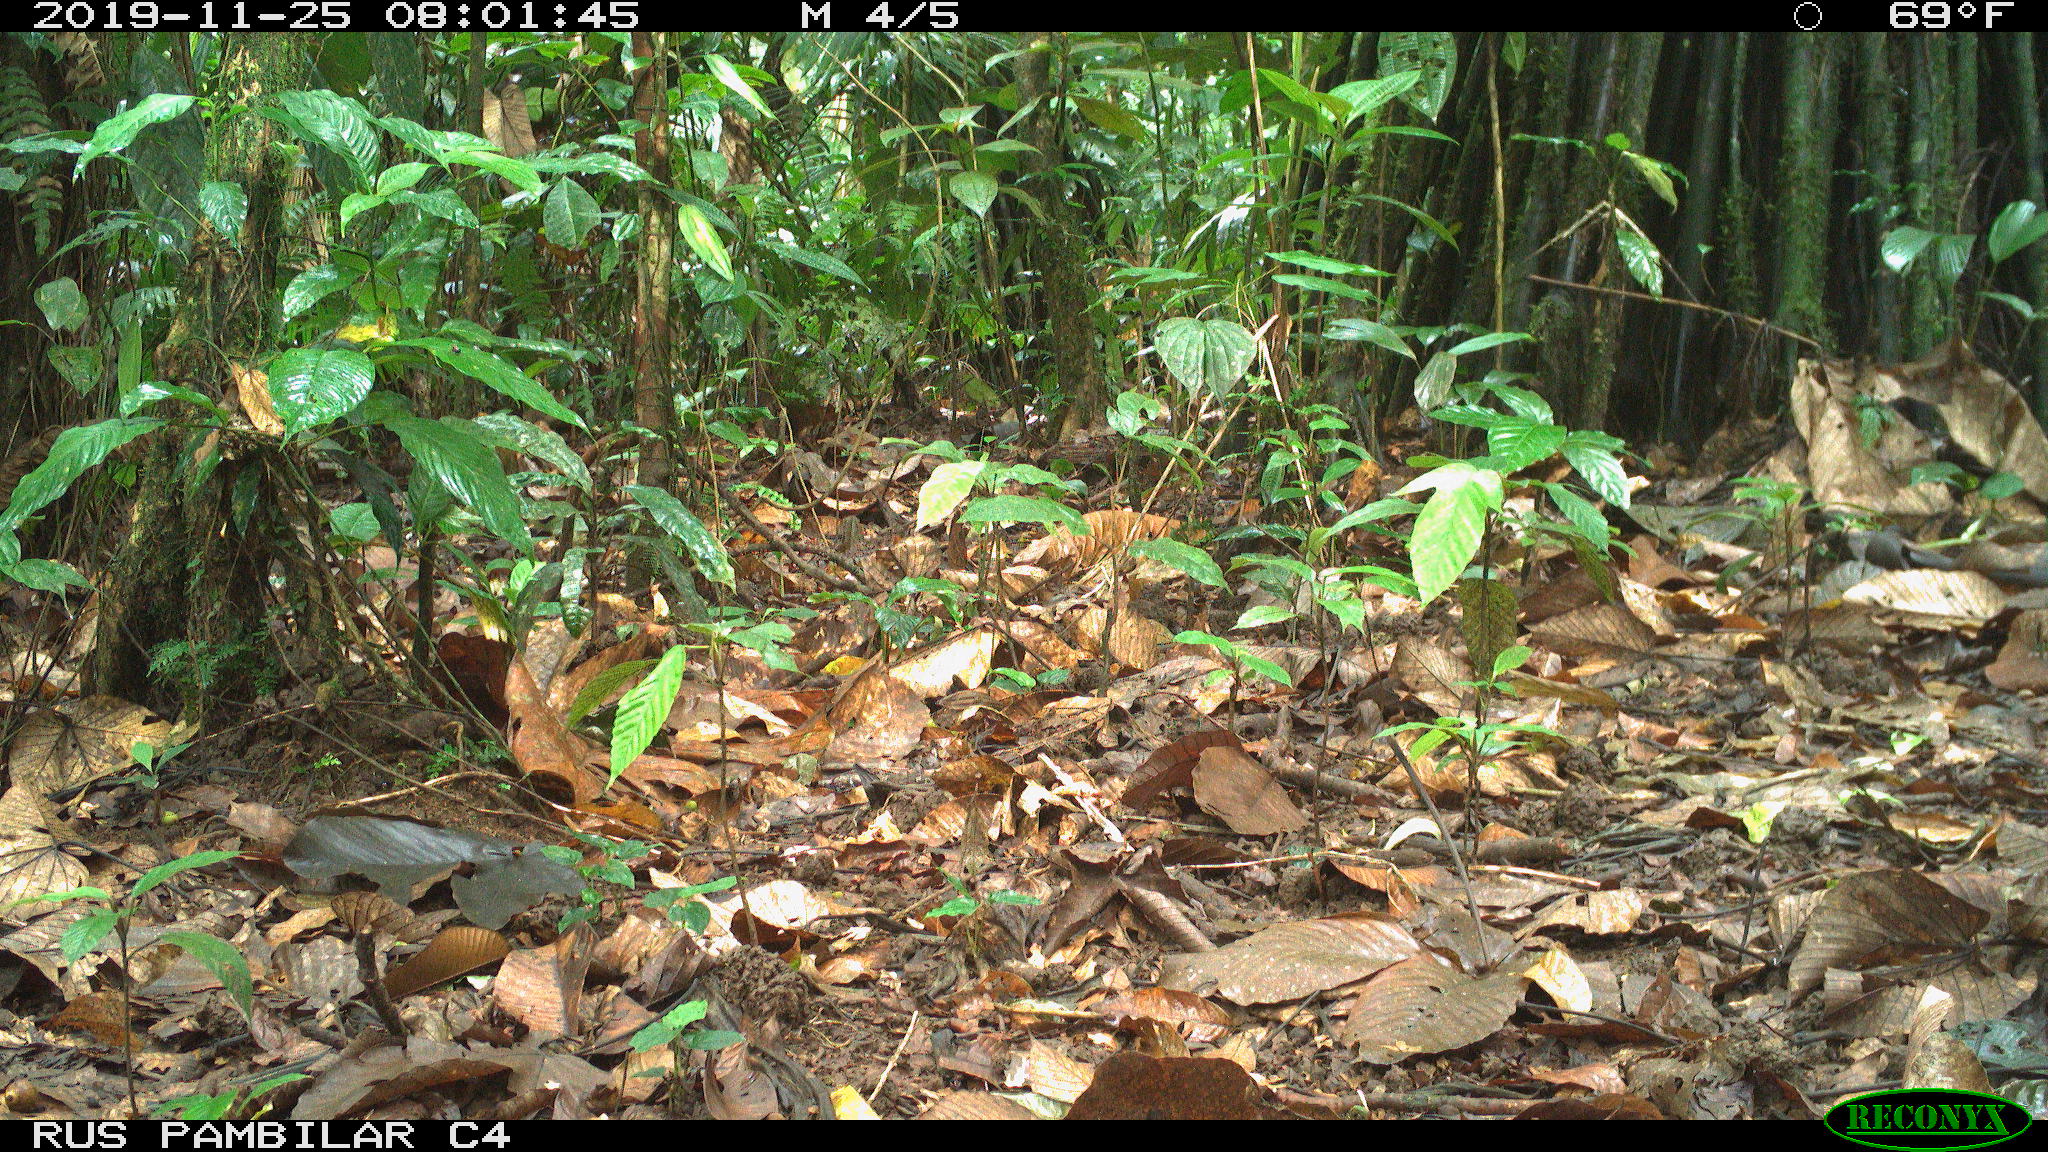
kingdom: Animalia
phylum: Chordata
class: Mammalia
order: Rodentia
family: Dasyproctidae
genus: Dasyprocta
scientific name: Dasyprocta punctata
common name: Central american agouti
